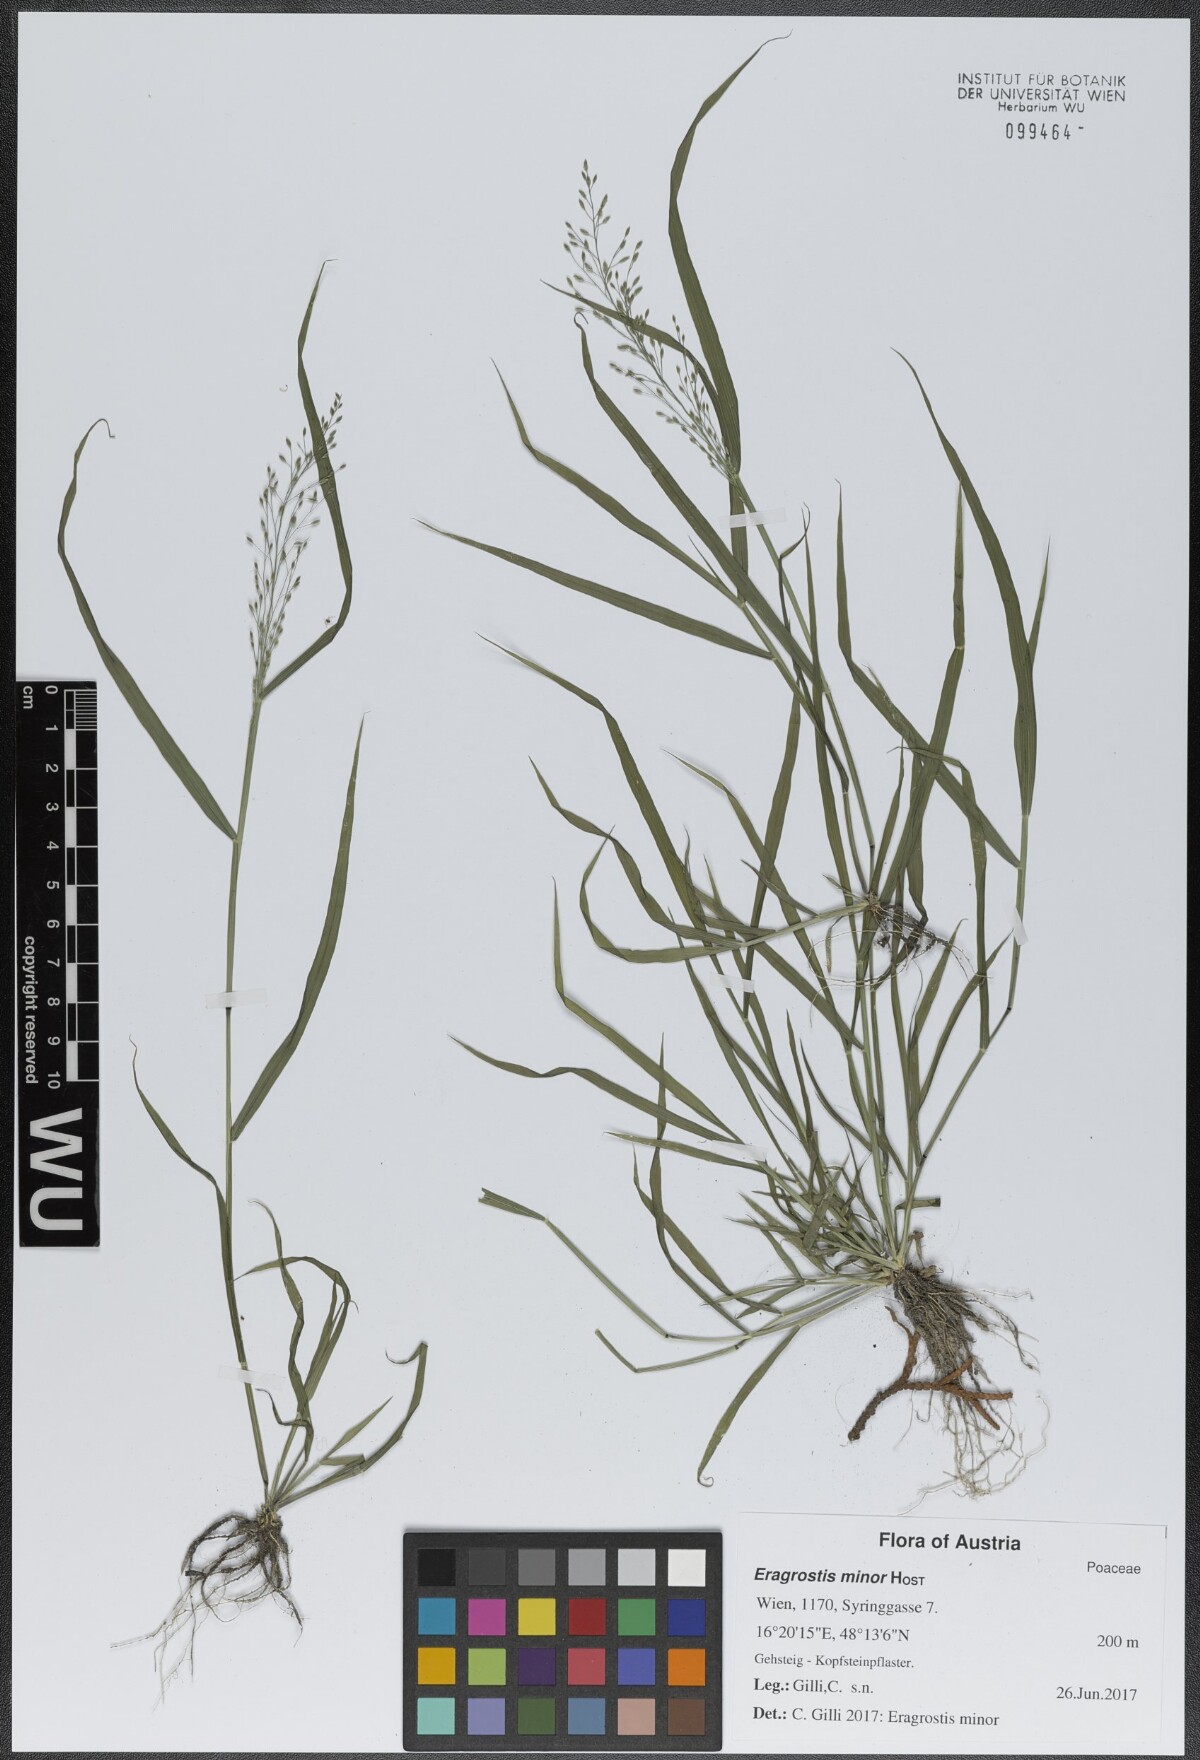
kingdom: Plantae
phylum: Tracheophyta
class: Liliopsida
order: Poales
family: Poaceae
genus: Eragrostis
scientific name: Eragrostis minor
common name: Small love-grass
